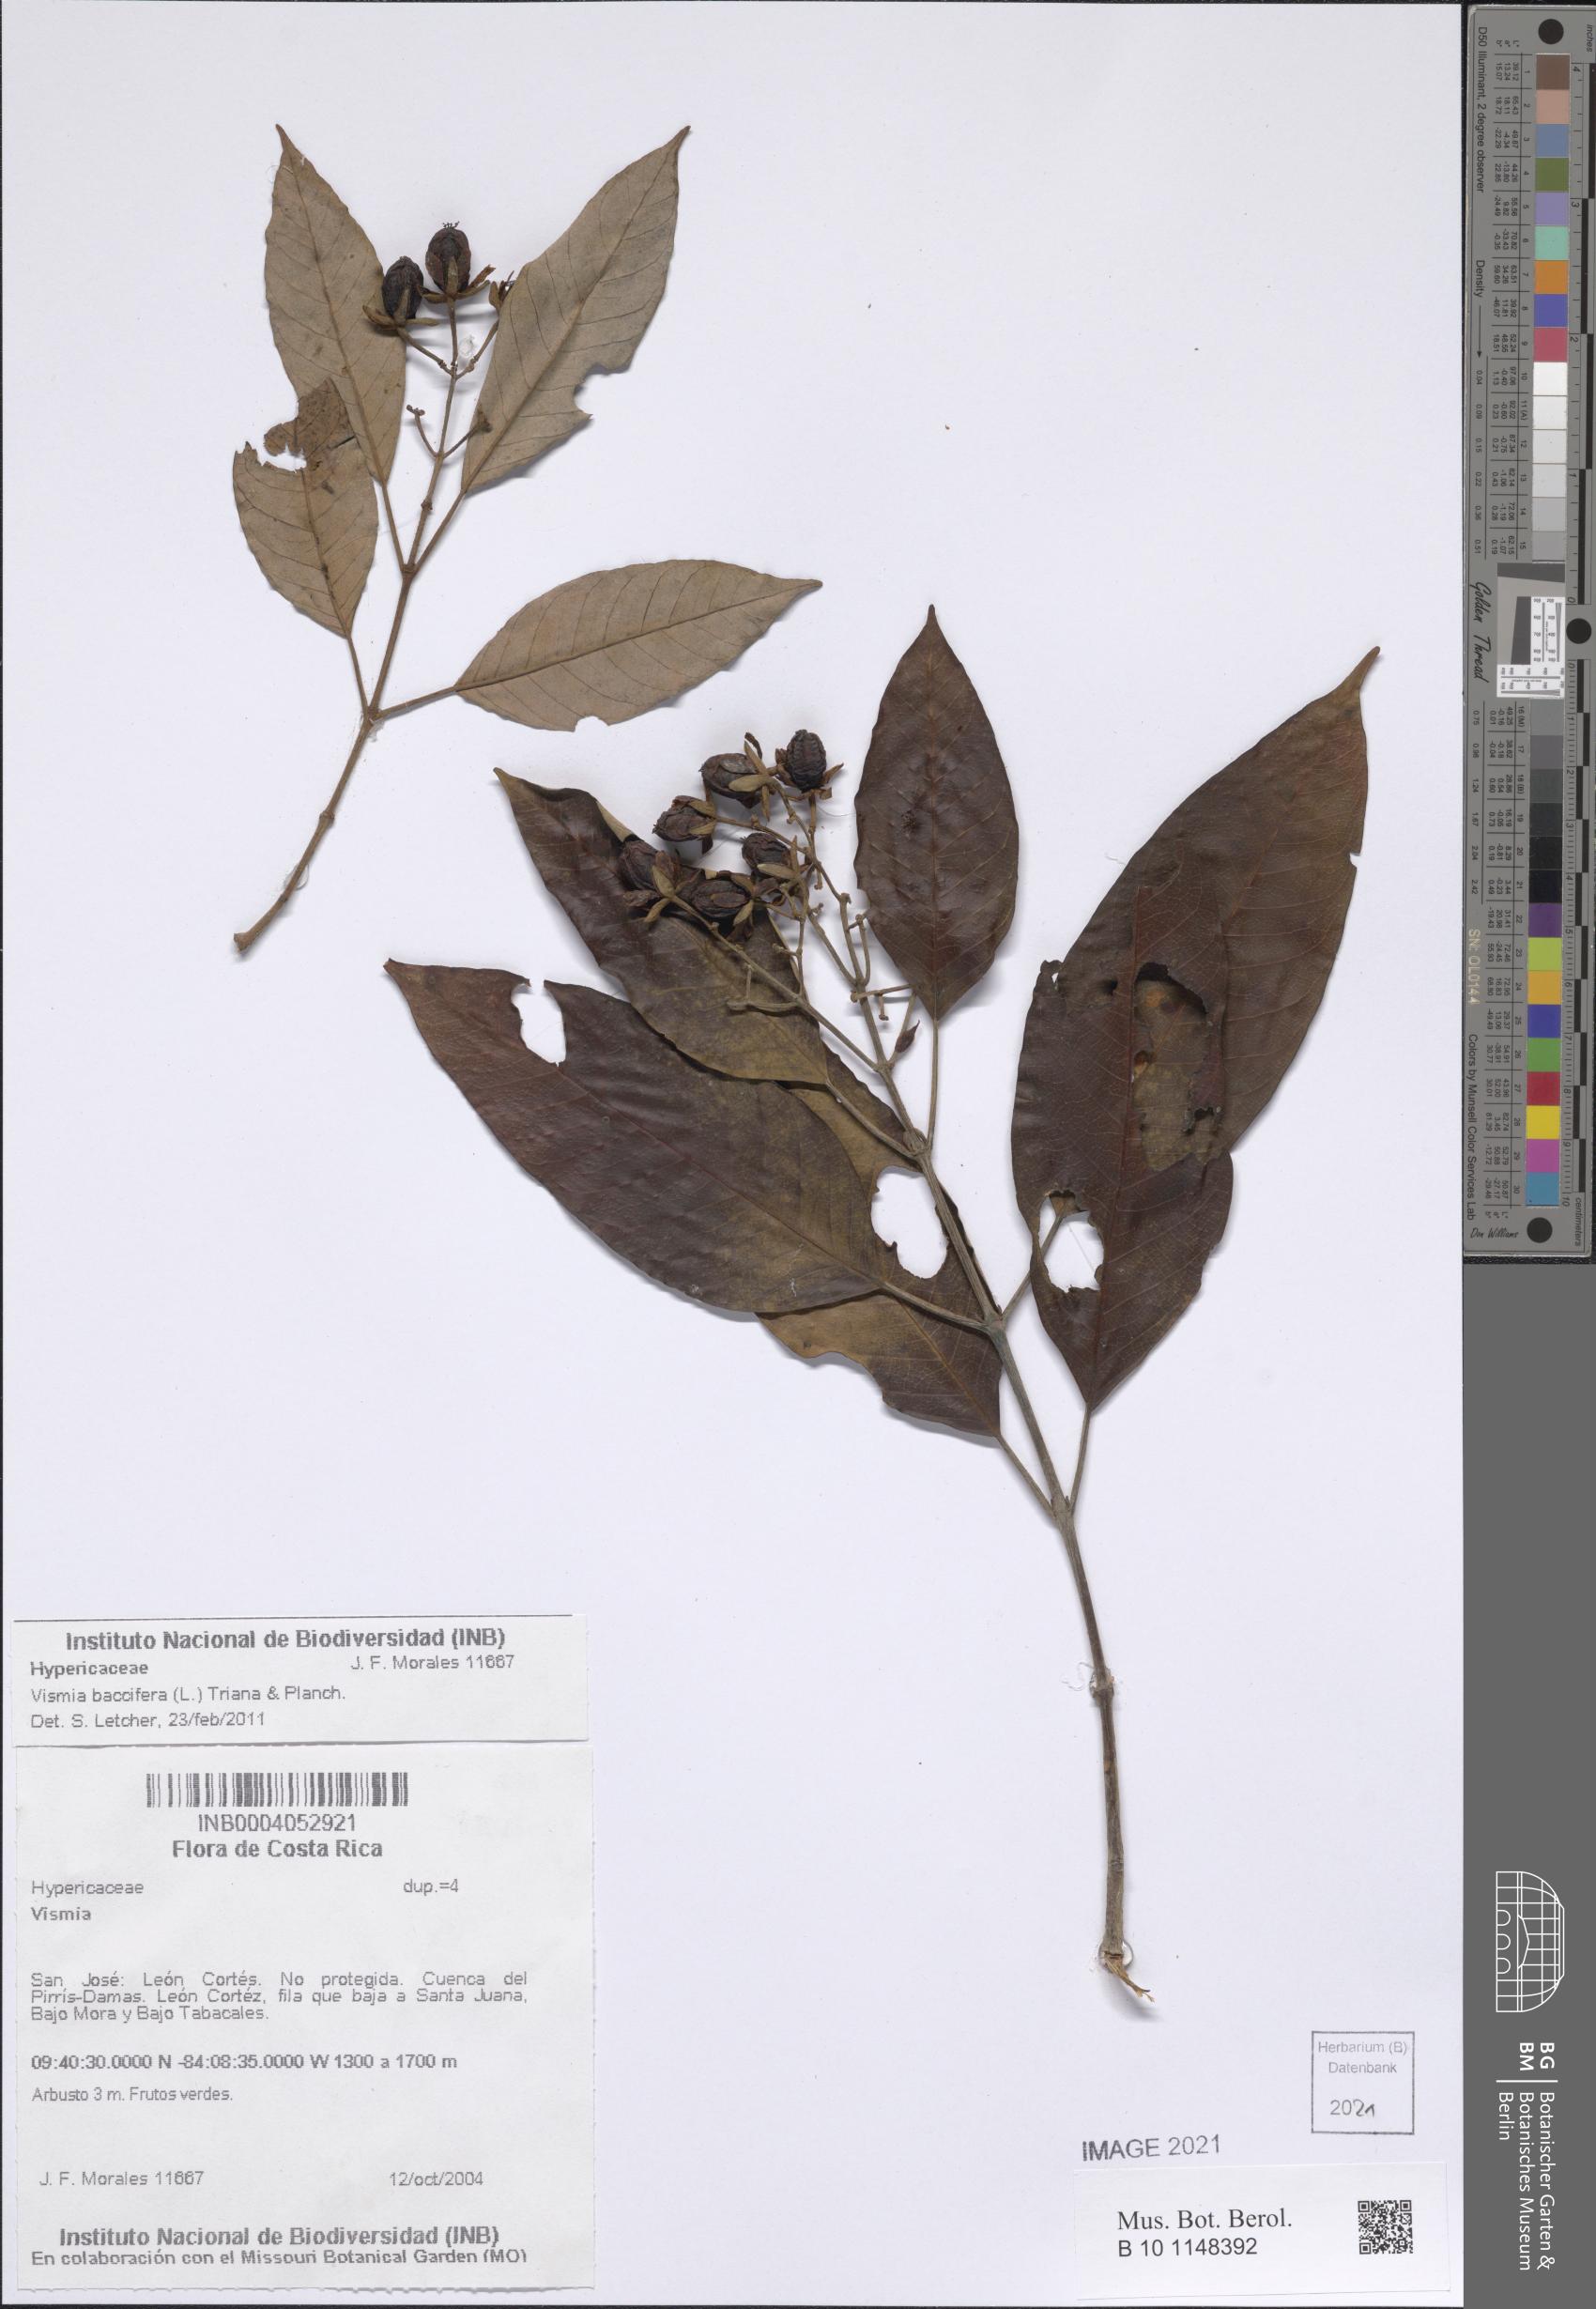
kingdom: Plantae
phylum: Tracheophyta
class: Magnoliopsida
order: Malpighiales
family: Hypericaceae
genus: Vismia
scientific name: Vismia baccifera
